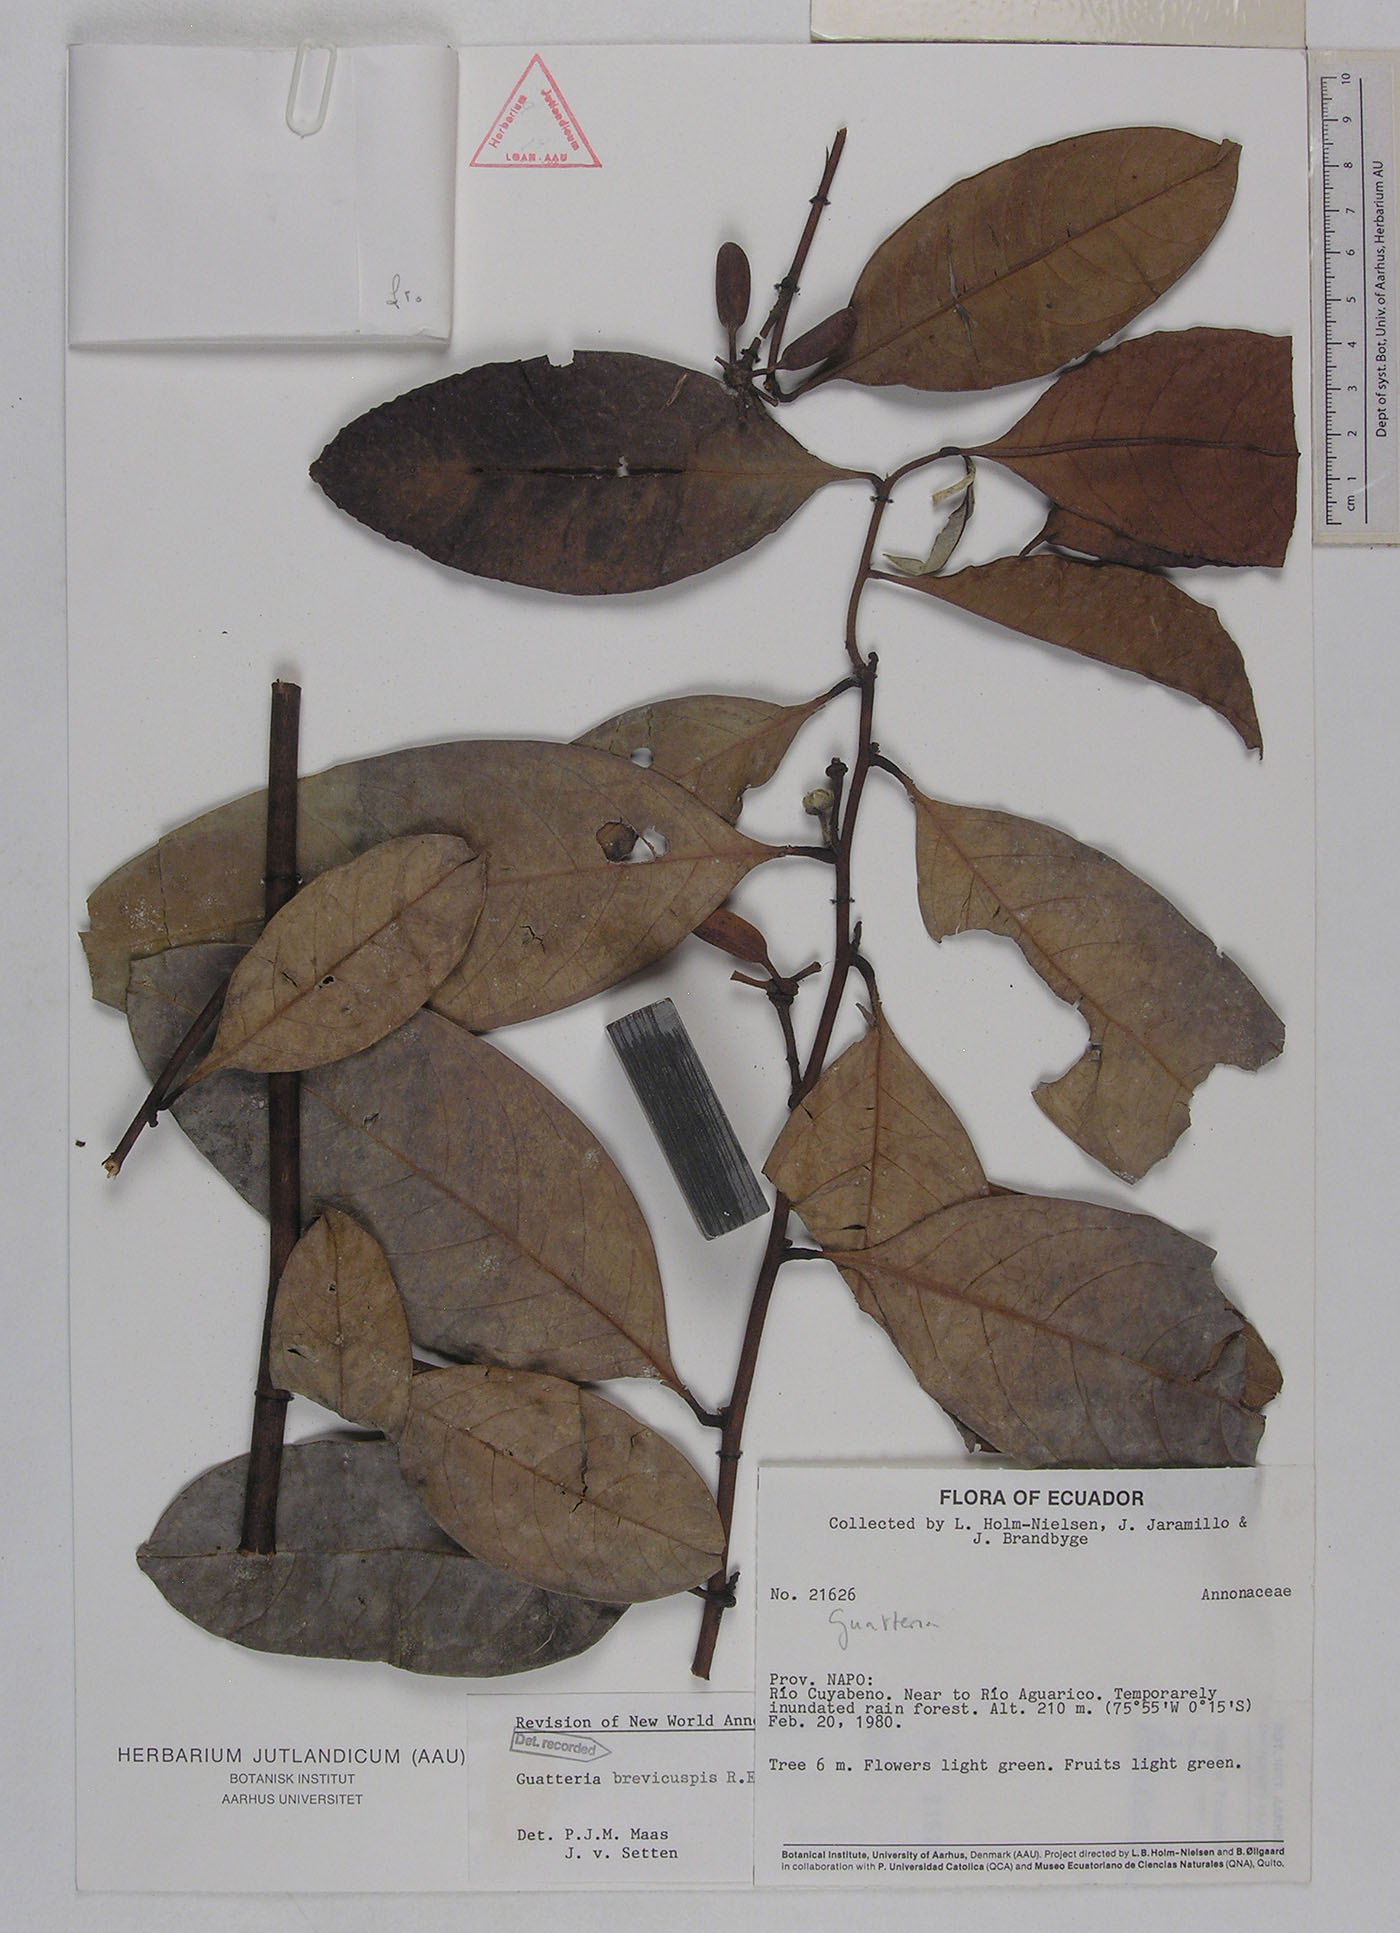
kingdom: Plantae
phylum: Tracheophyta
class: Magnoliopsida
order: Magnoliales
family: Annonaceae
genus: Guatteria
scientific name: Guatteria blepharophylla
